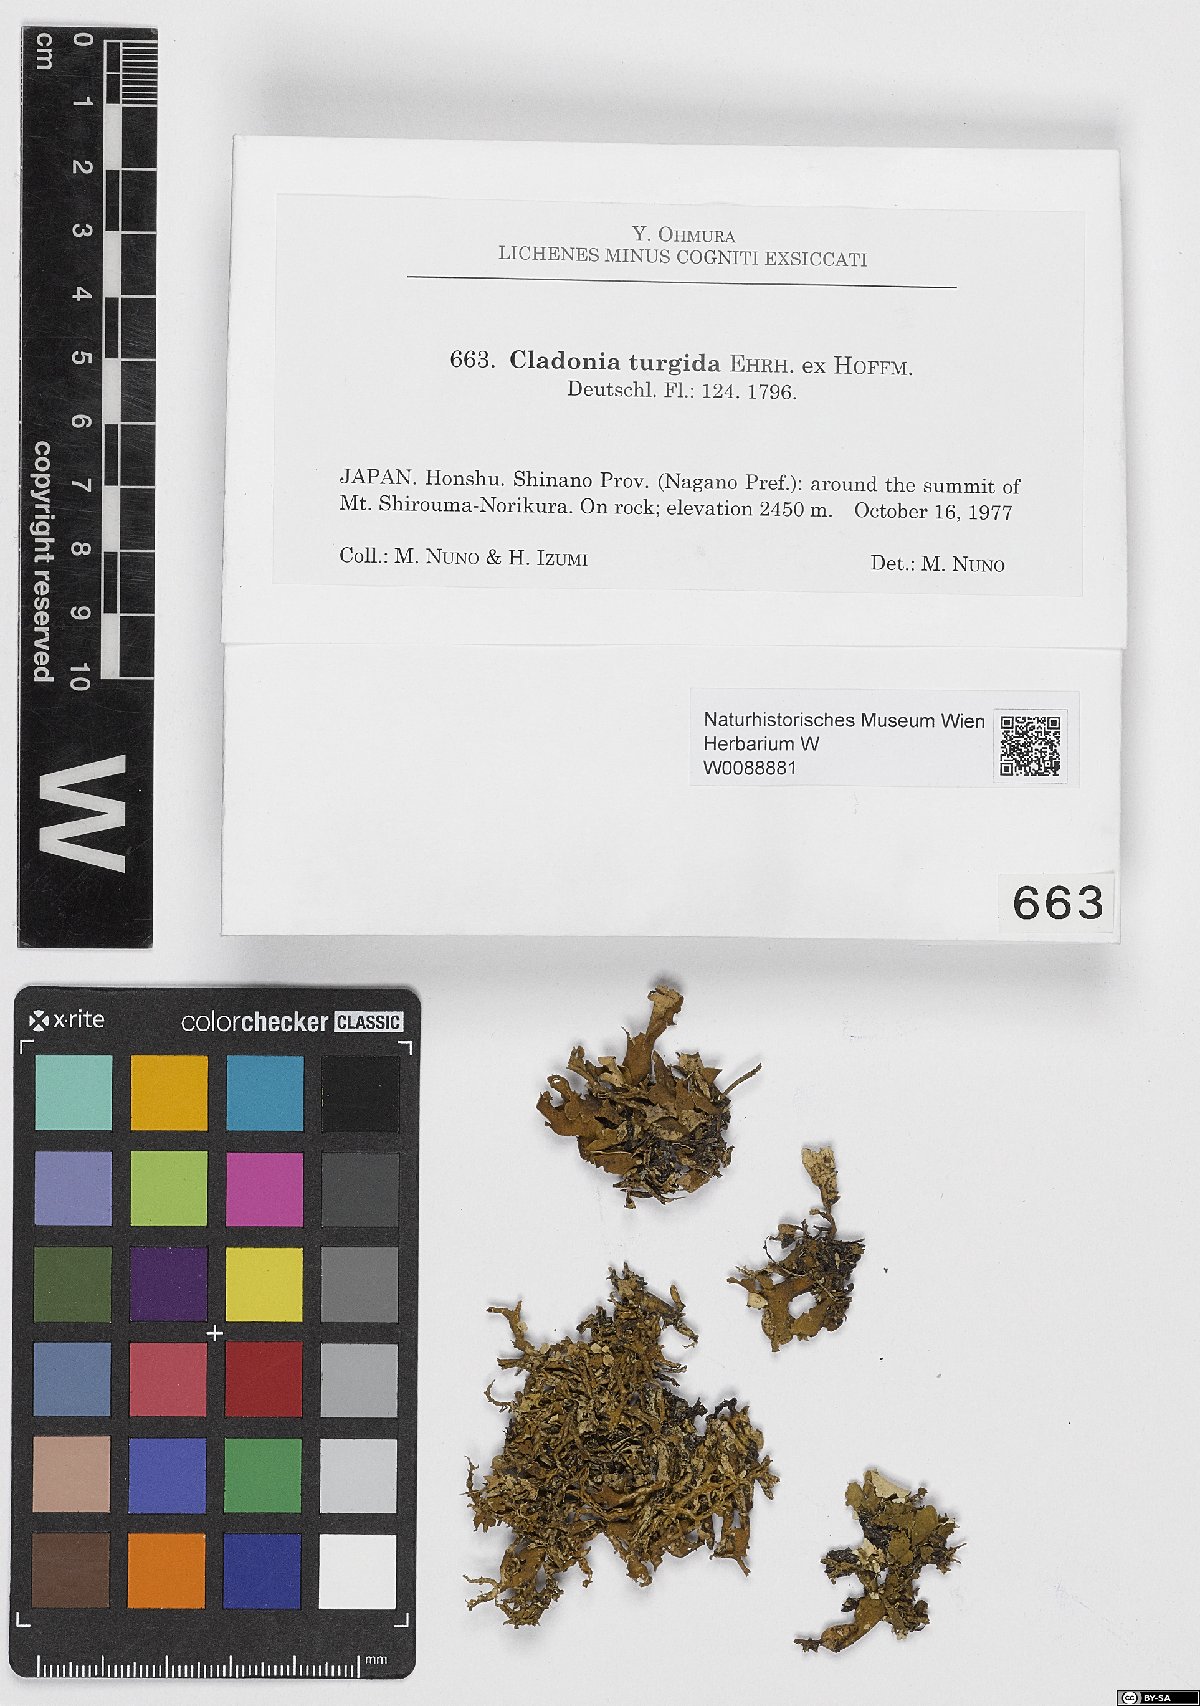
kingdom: Fungi
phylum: Ascomycota
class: Lecanoromycetes
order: Lecanorales
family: Cladoniaceae
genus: Cladonia
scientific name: Cladonia turgida
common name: Crazy scale lichen
